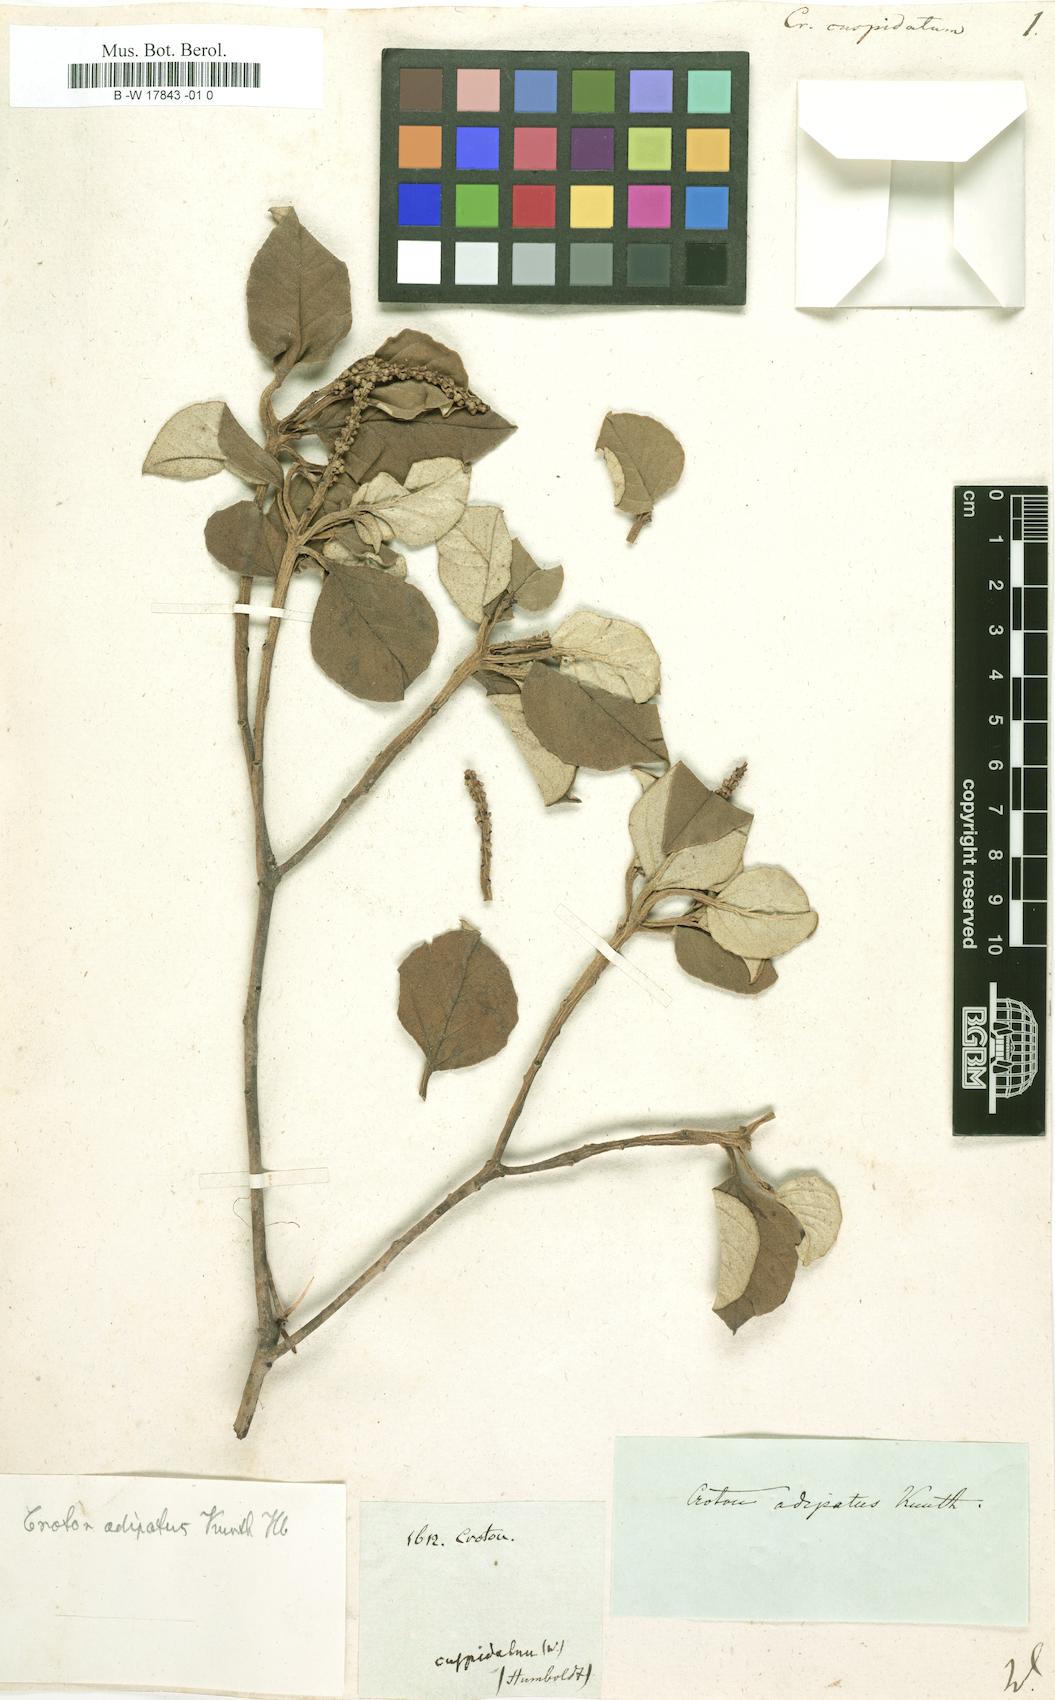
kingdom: Plantae
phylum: Tracheophyta
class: Magnoliopsida
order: Malpighiales
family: Euphorbiaceae
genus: Croton
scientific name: Croton
